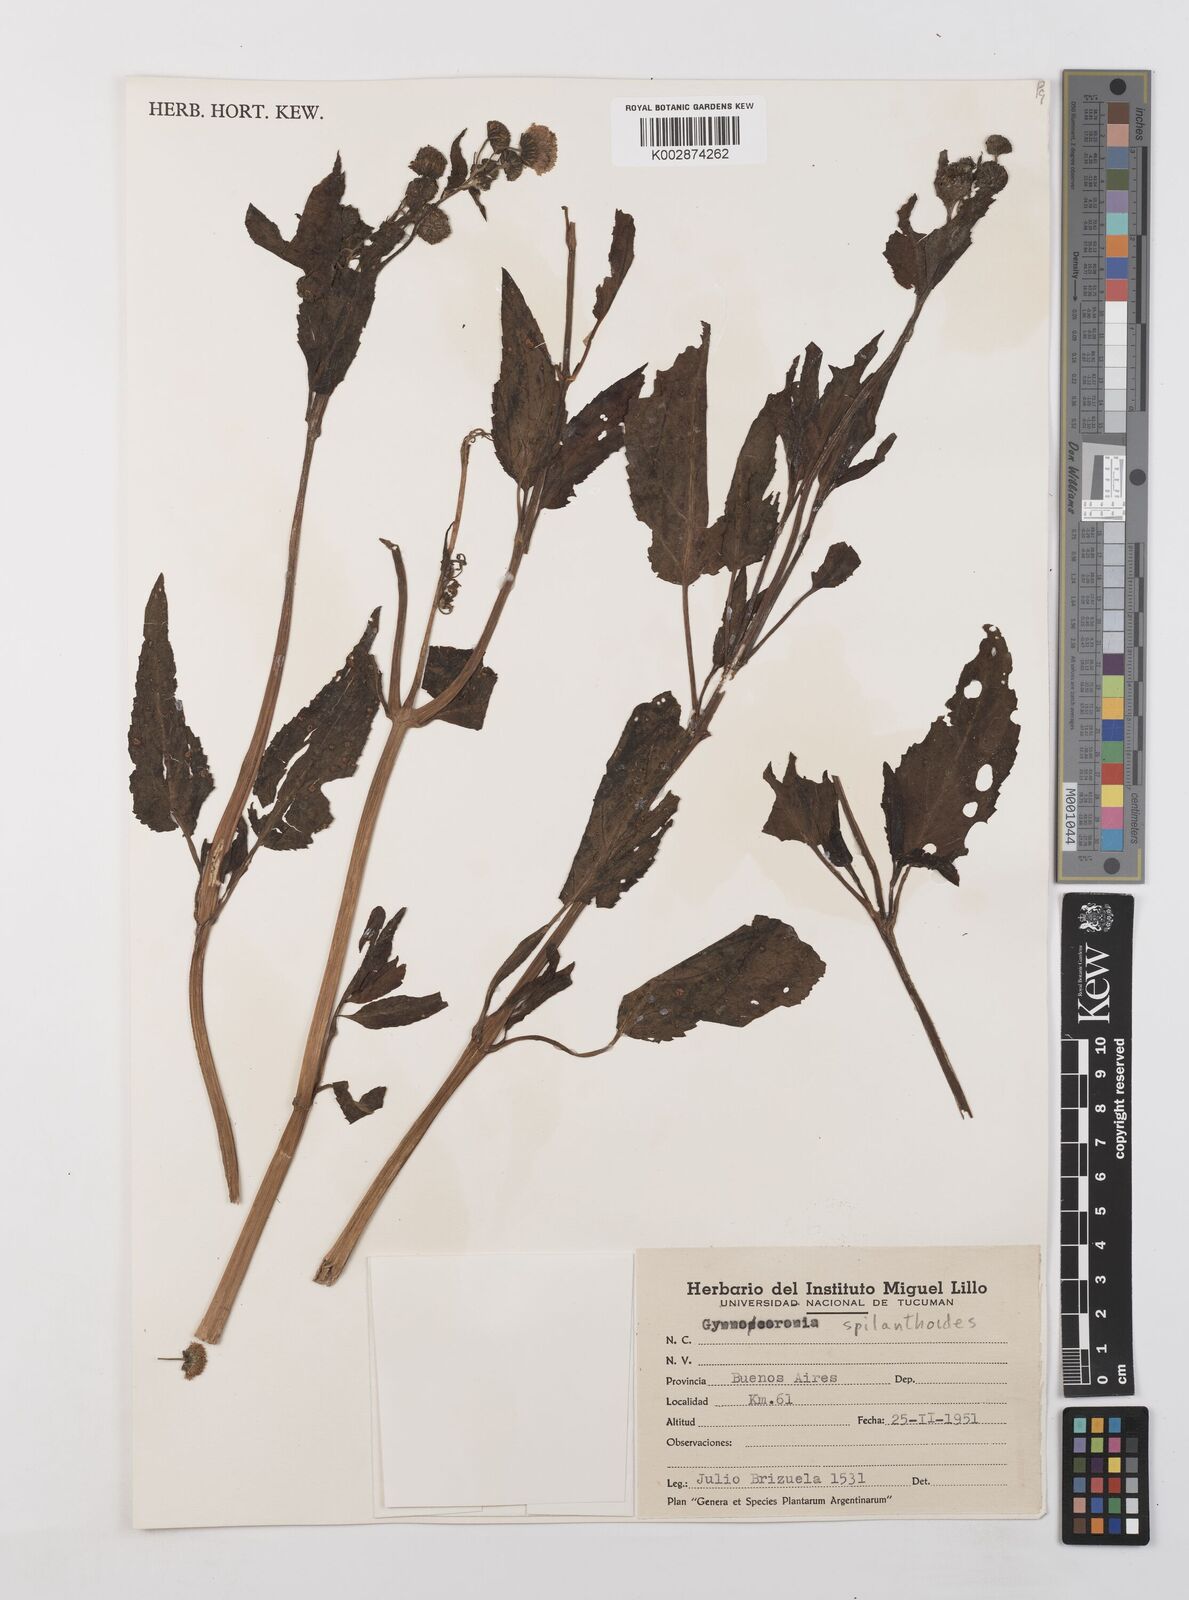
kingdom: Plantae
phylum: Tracheophyta
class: Magnoliopsida
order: Asterales
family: Asteraceae
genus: Gymnocoronis
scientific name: Gymnocoronis spilanthoides
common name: Senegal teaplant
